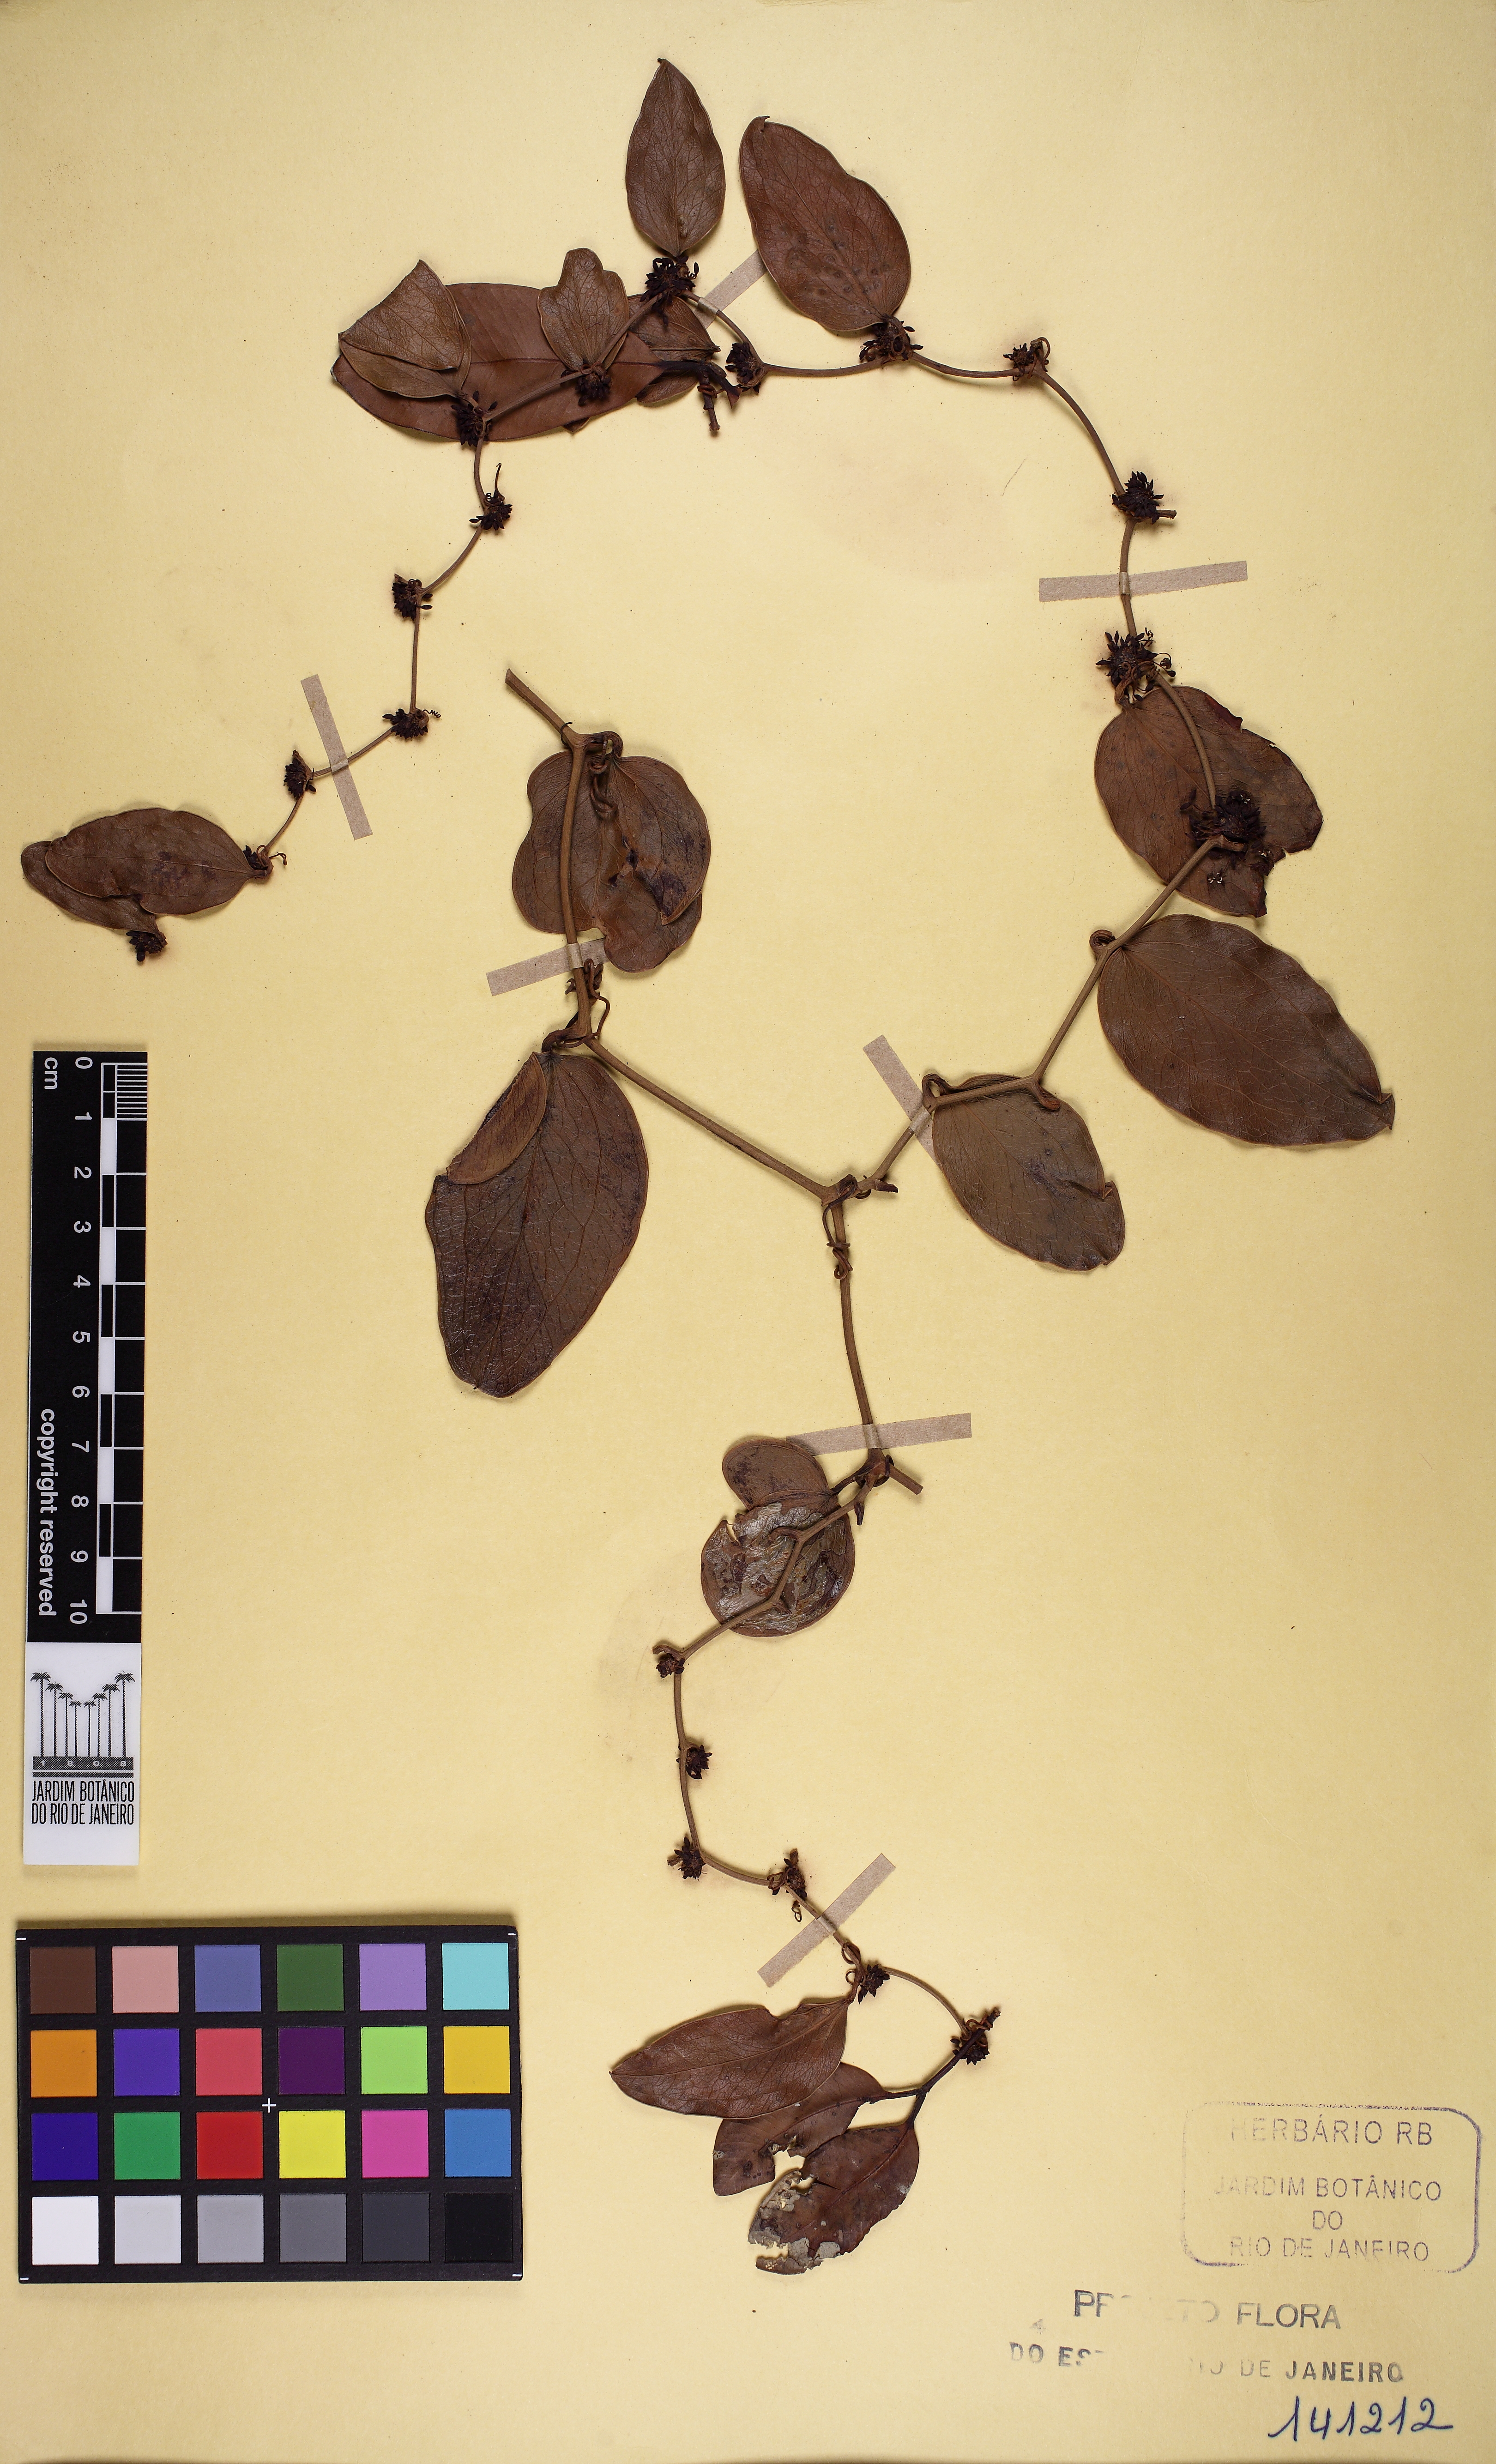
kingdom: Plantae
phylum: Tracheophyta
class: Liliopsida
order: Liliales
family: Smilacaceae
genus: Smilax
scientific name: Smilax rufescens
